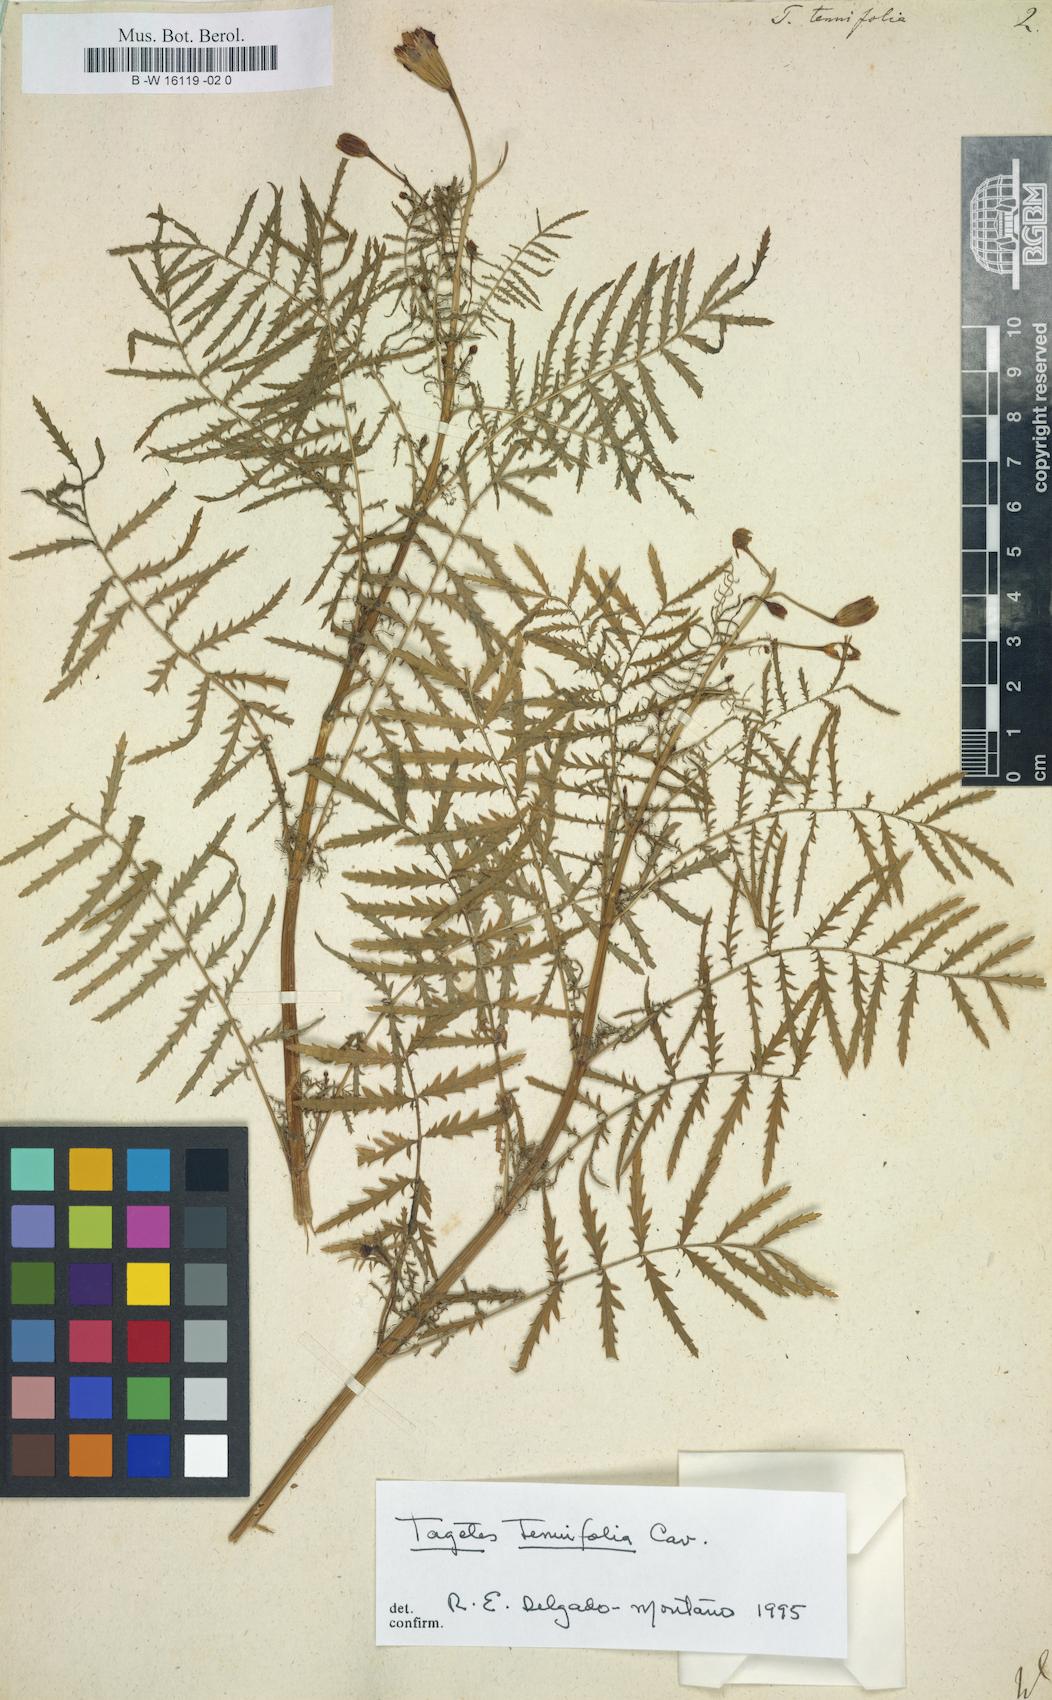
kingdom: Plantae
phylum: Tracheophyta
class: Magnoliopsida
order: Asterales
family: Asteraceae
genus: Tagetes
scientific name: Tagetes tenuifolia
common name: Signet marigold
